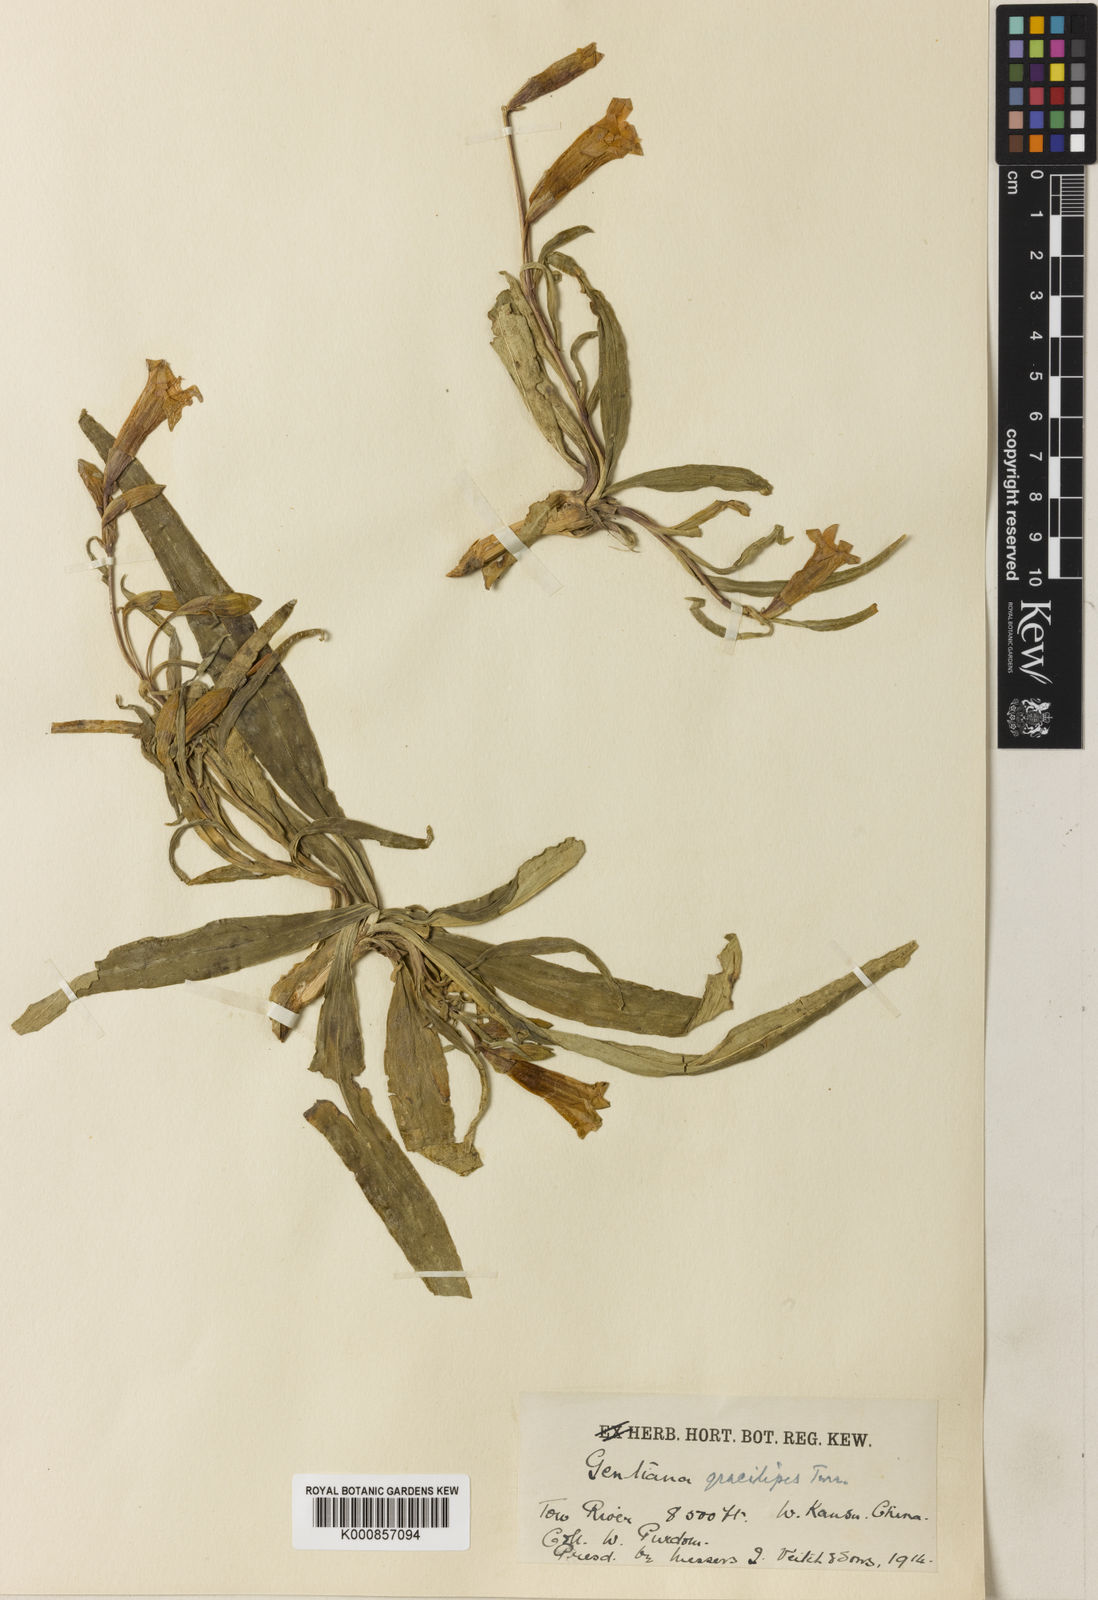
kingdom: Plantae
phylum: Tracheophyta
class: Magnoliopsida
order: Gentianales
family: Gentianaceae
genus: Gentiana
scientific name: Gentiana dahurica
